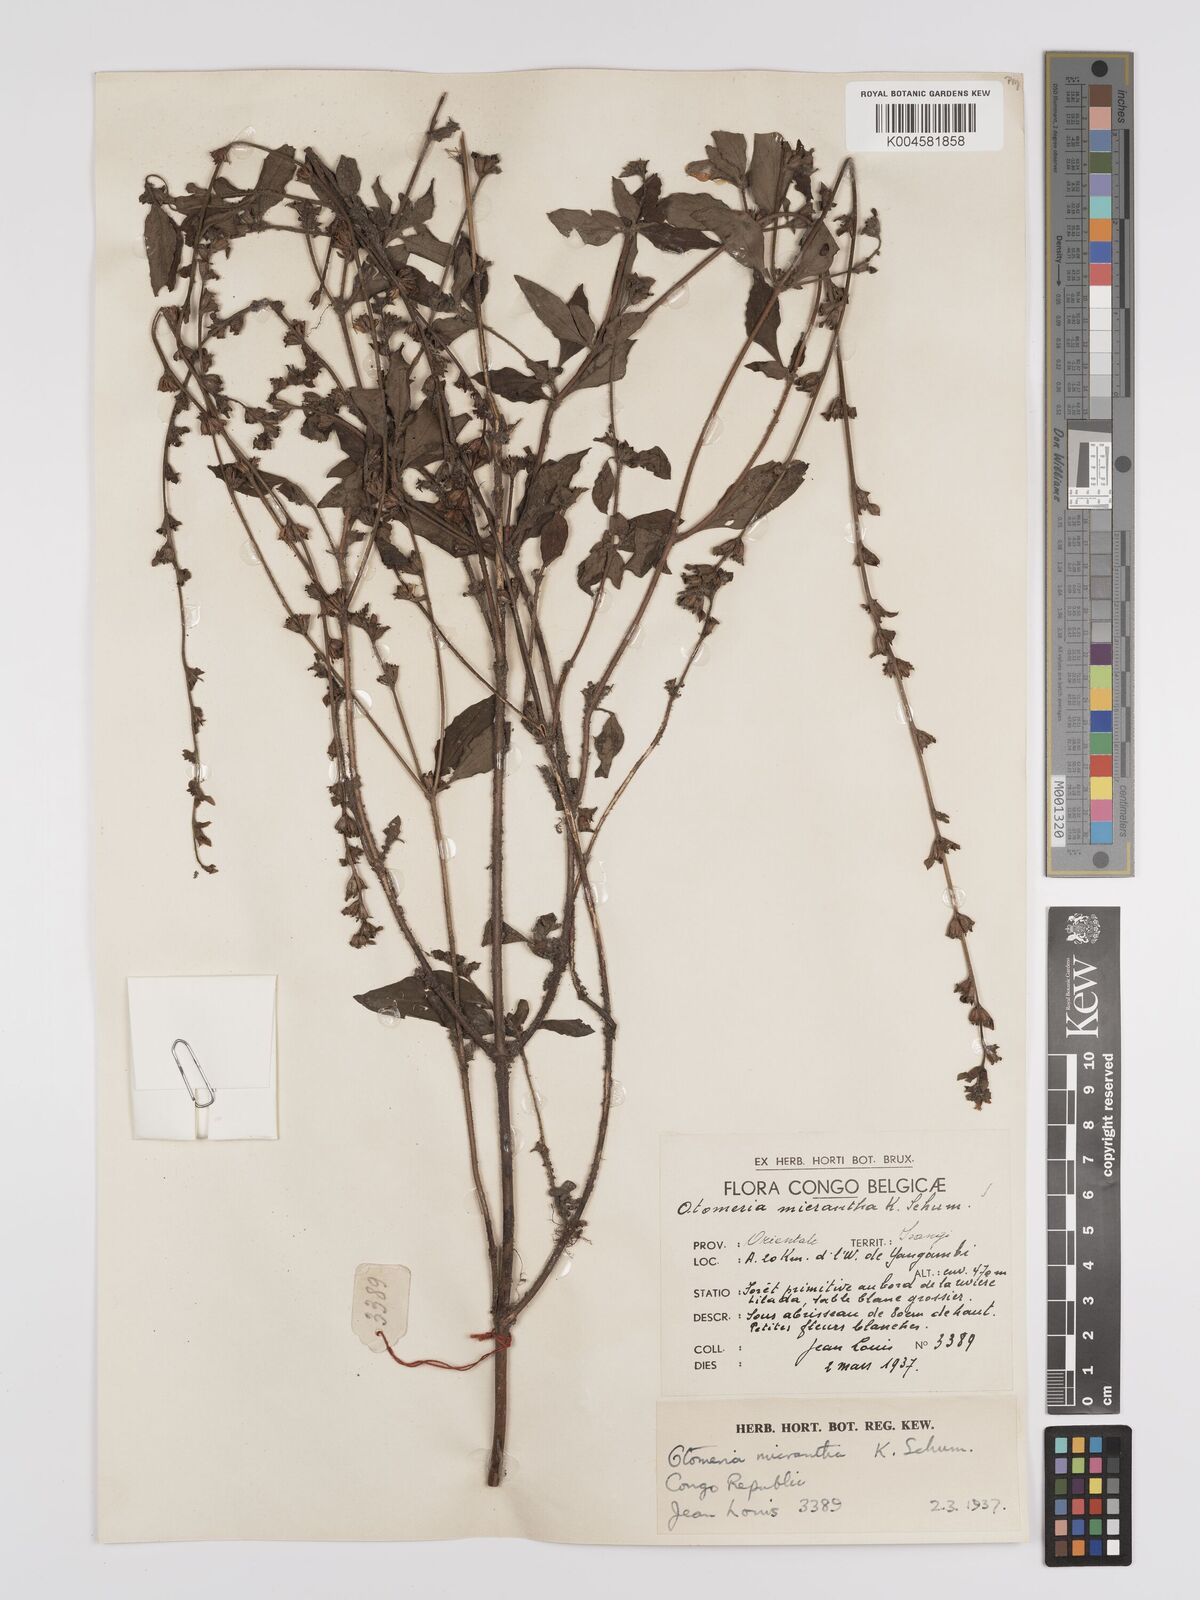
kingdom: Plantae
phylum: Tracheophyta
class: Magnoliopsida
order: Gentianales
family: Rubiaceae
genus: Otomeria
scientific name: Otomeria micrantha
